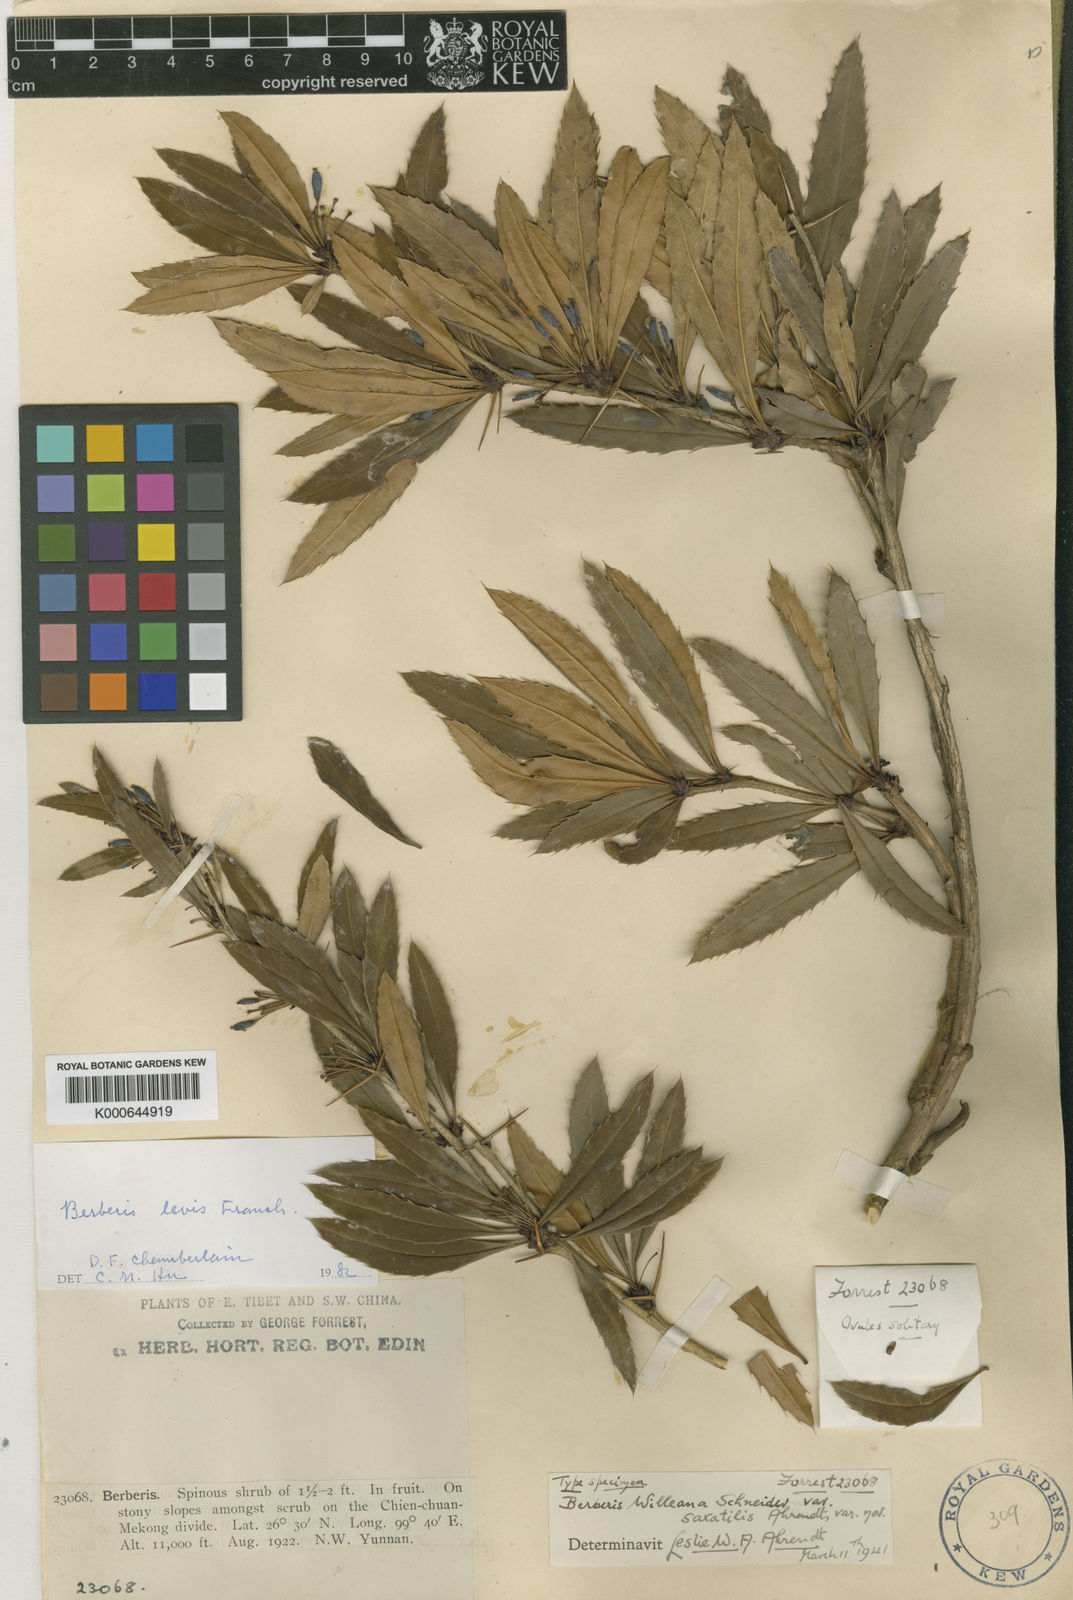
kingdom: Plantae
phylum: Tracheophyta
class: Magnoliopsida
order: Ranunculales
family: Berberidaceae
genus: Berberis
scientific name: Berberis levis
